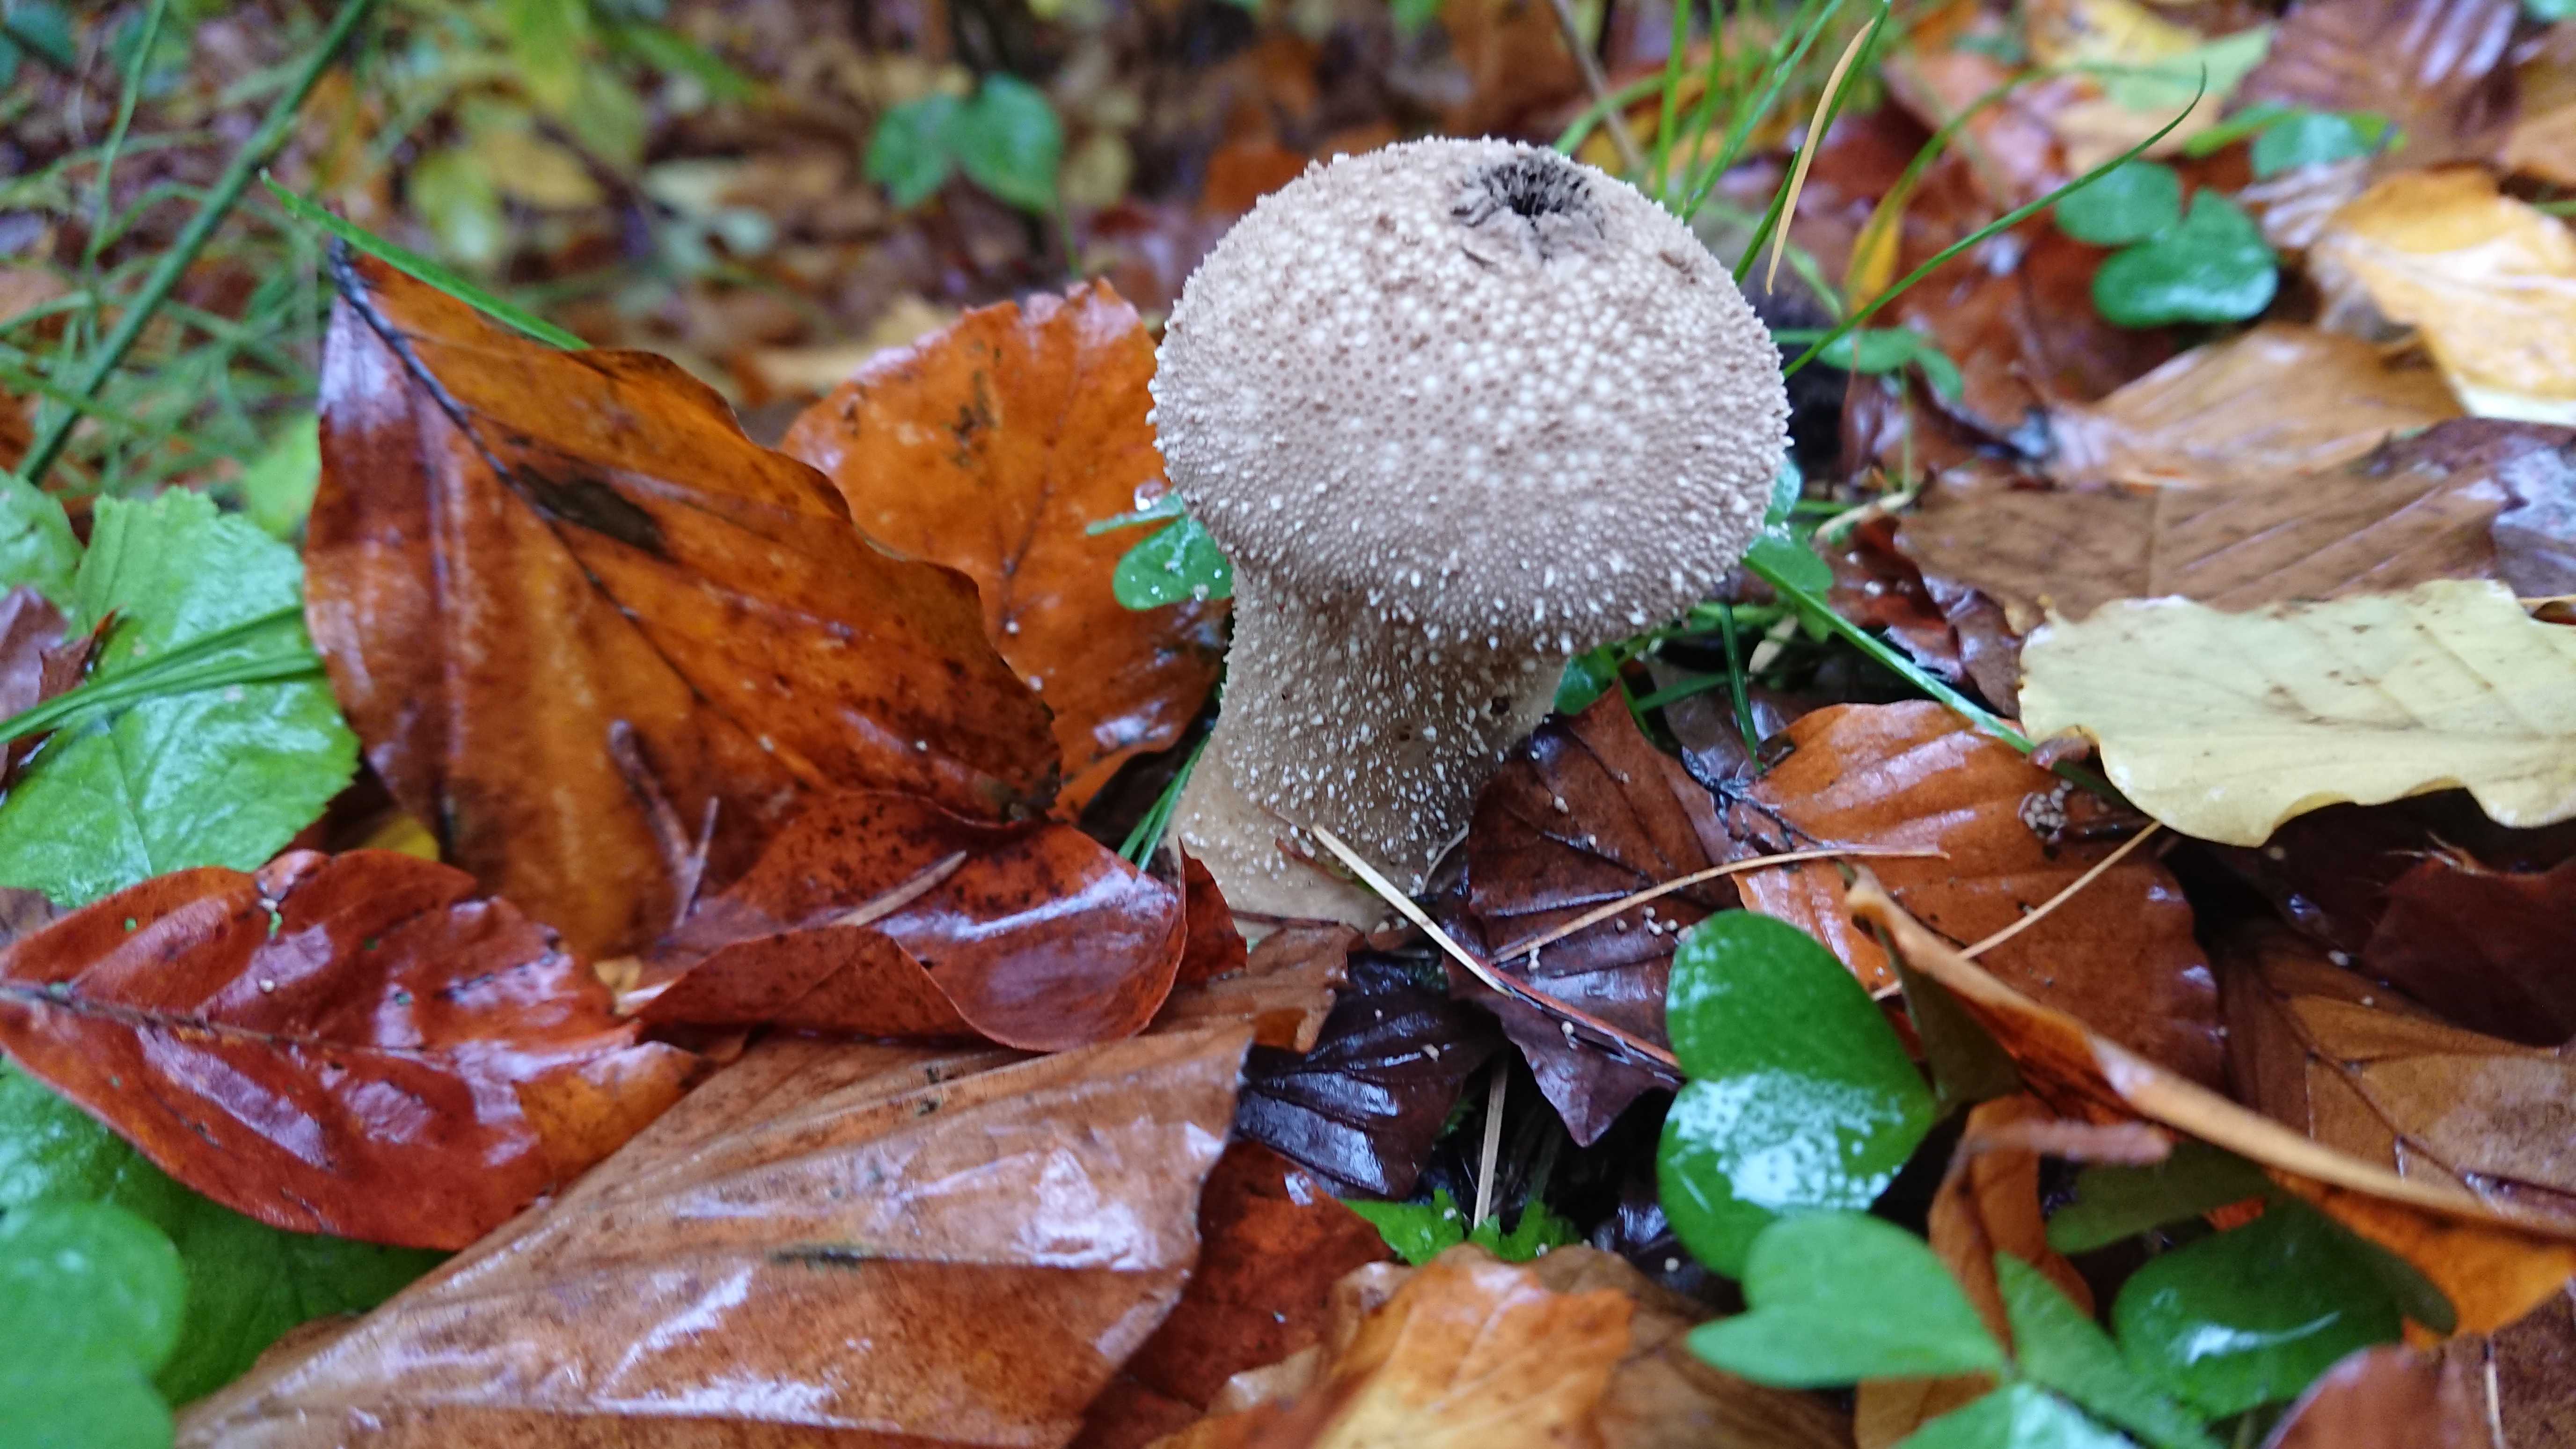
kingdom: Fungi
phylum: Basidiomycota
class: Agaricomycetes
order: Agaricales
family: Lycoperdaceae
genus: Lycoperdon
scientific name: Lycoperdon perlatum
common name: krystal-støvbold
